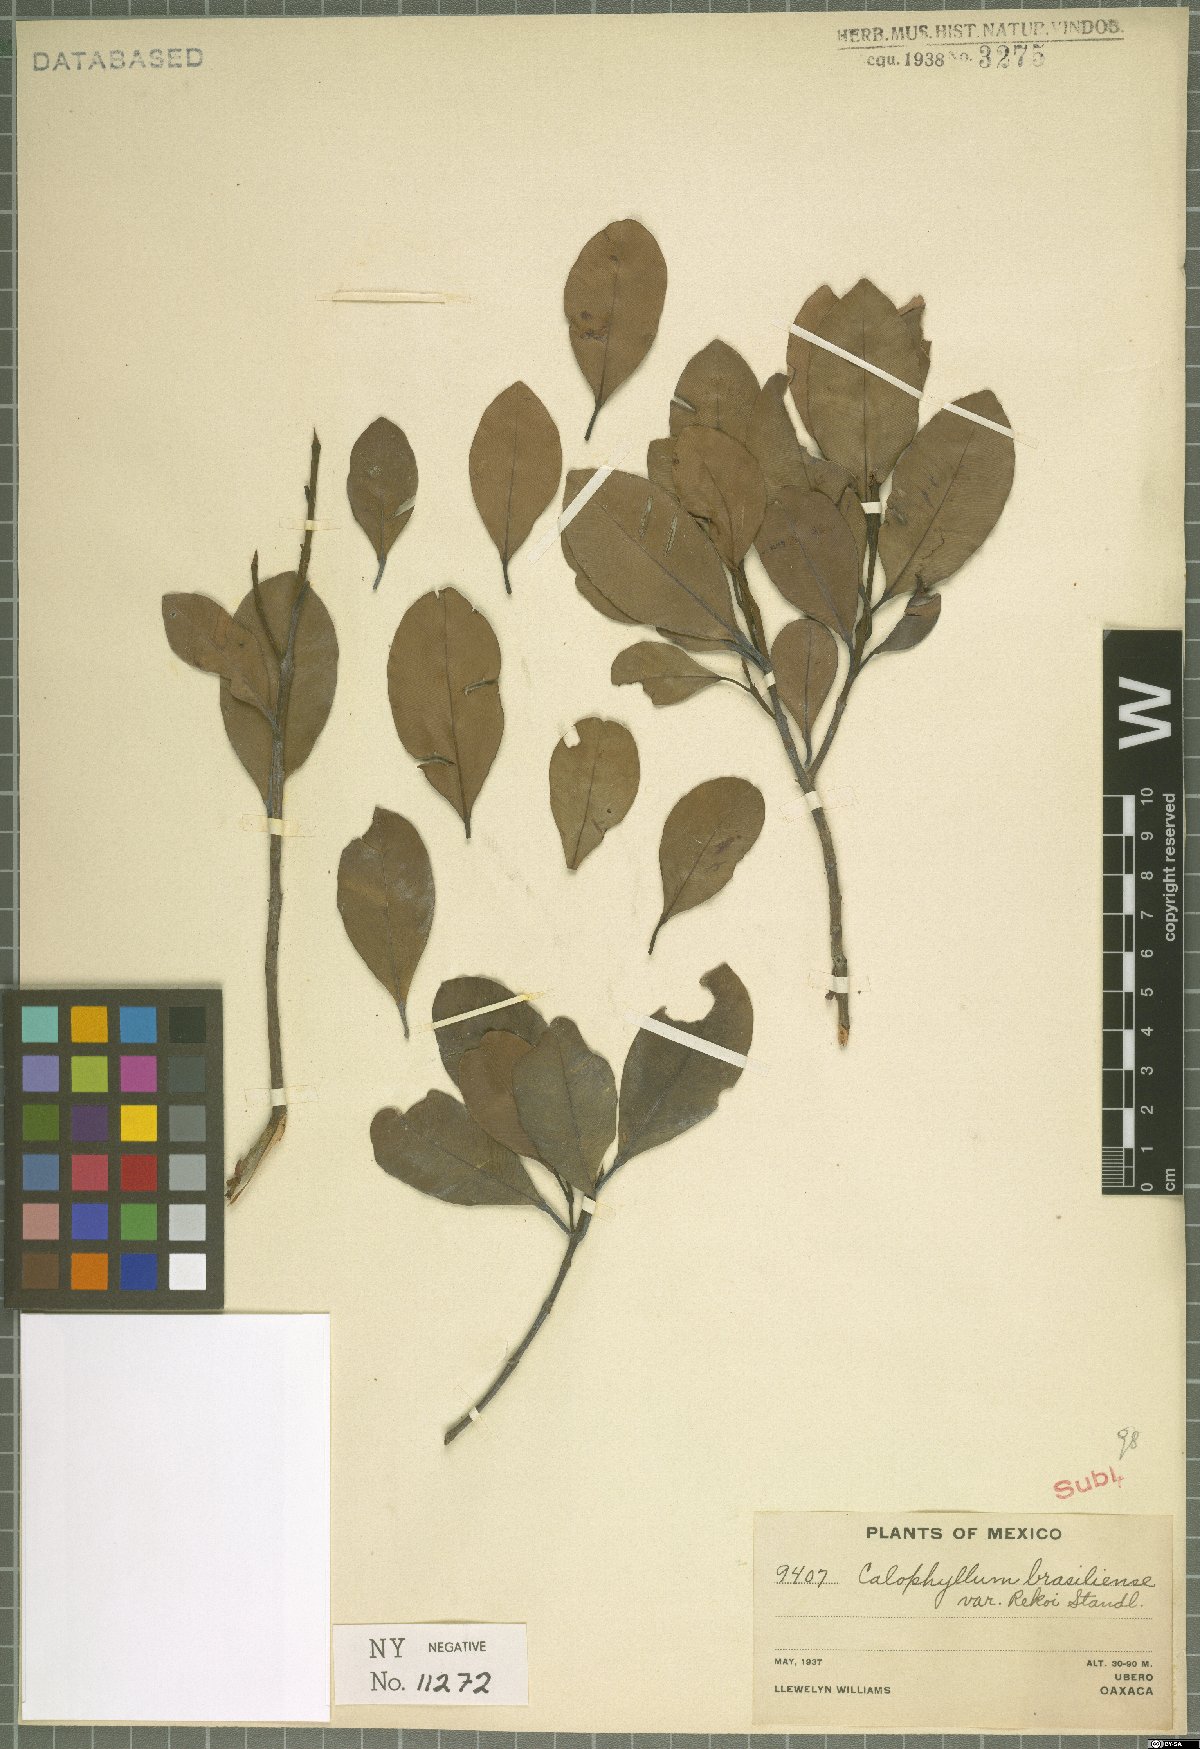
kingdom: Plantae
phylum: Tracheophyta
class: Magnoliopsida
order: Malpighiales
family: Calophyllaceae
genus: Calophyllum
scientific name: Calophyllum brasiliense
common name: Santa maria
